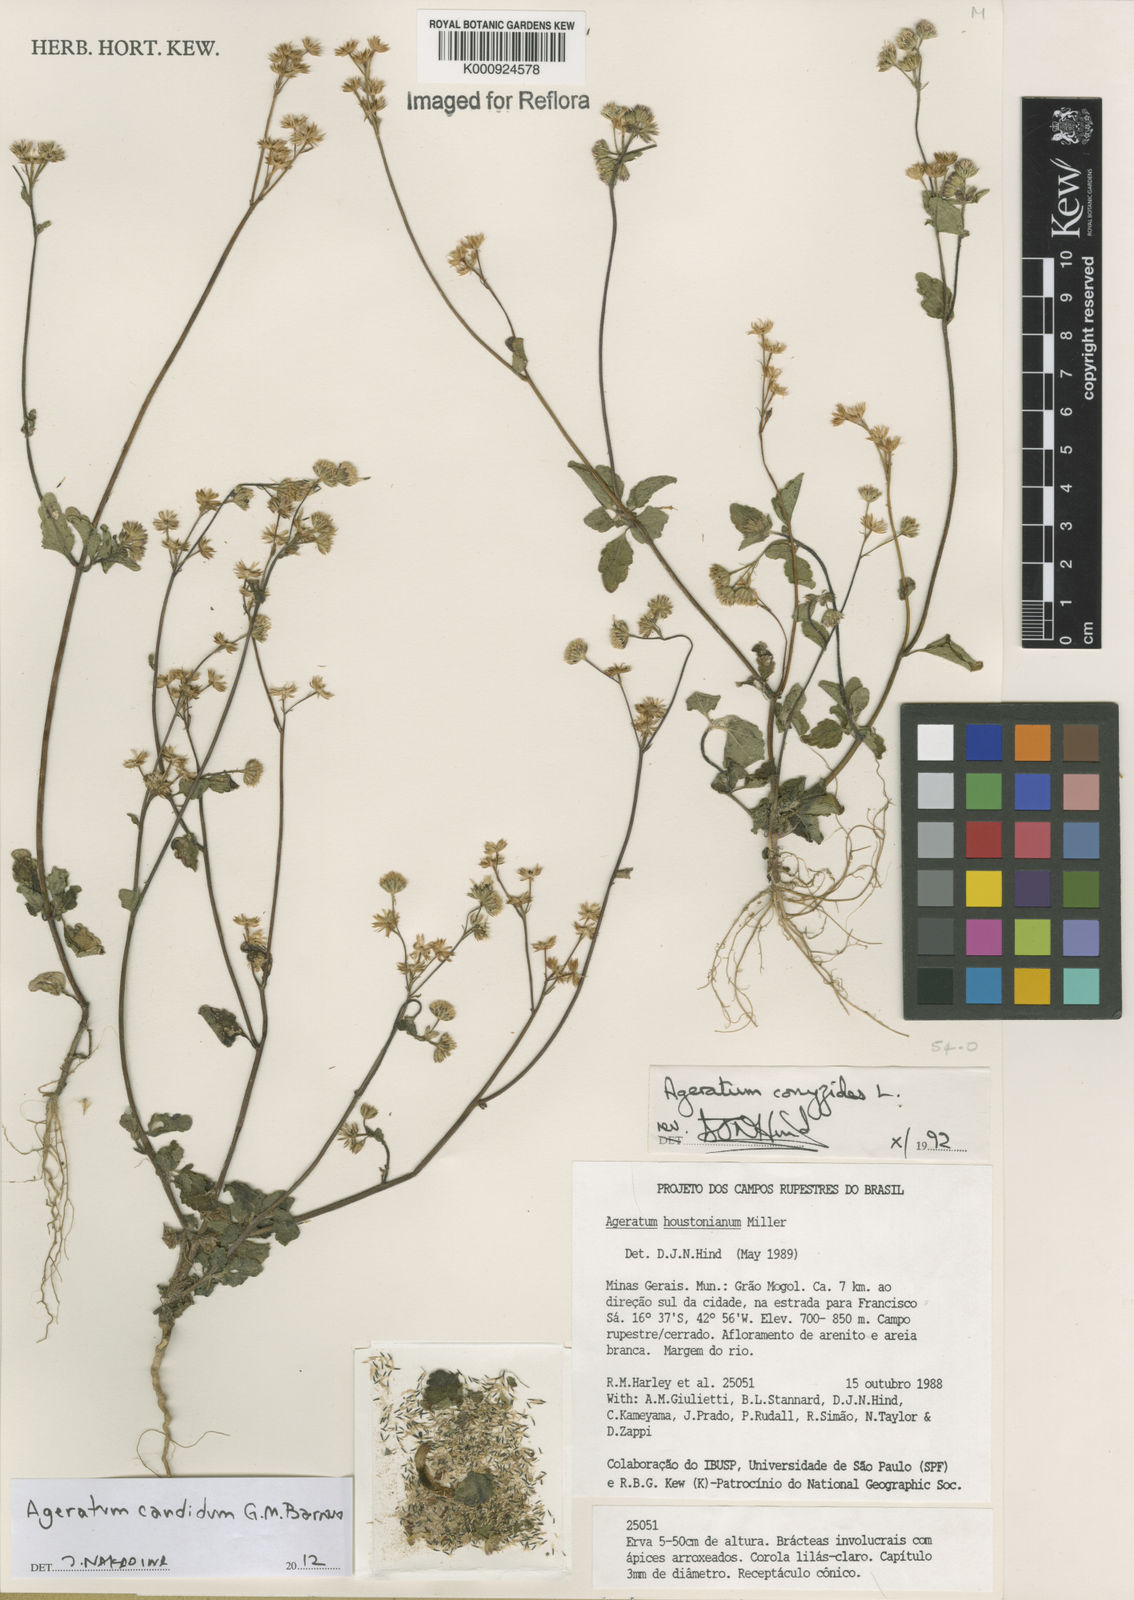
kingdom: Plantae
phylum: Tracheophyta
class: Magnoliopsida
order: Asterales
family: Asteraceae
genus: Ageratum
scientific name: Ageratum candidum
